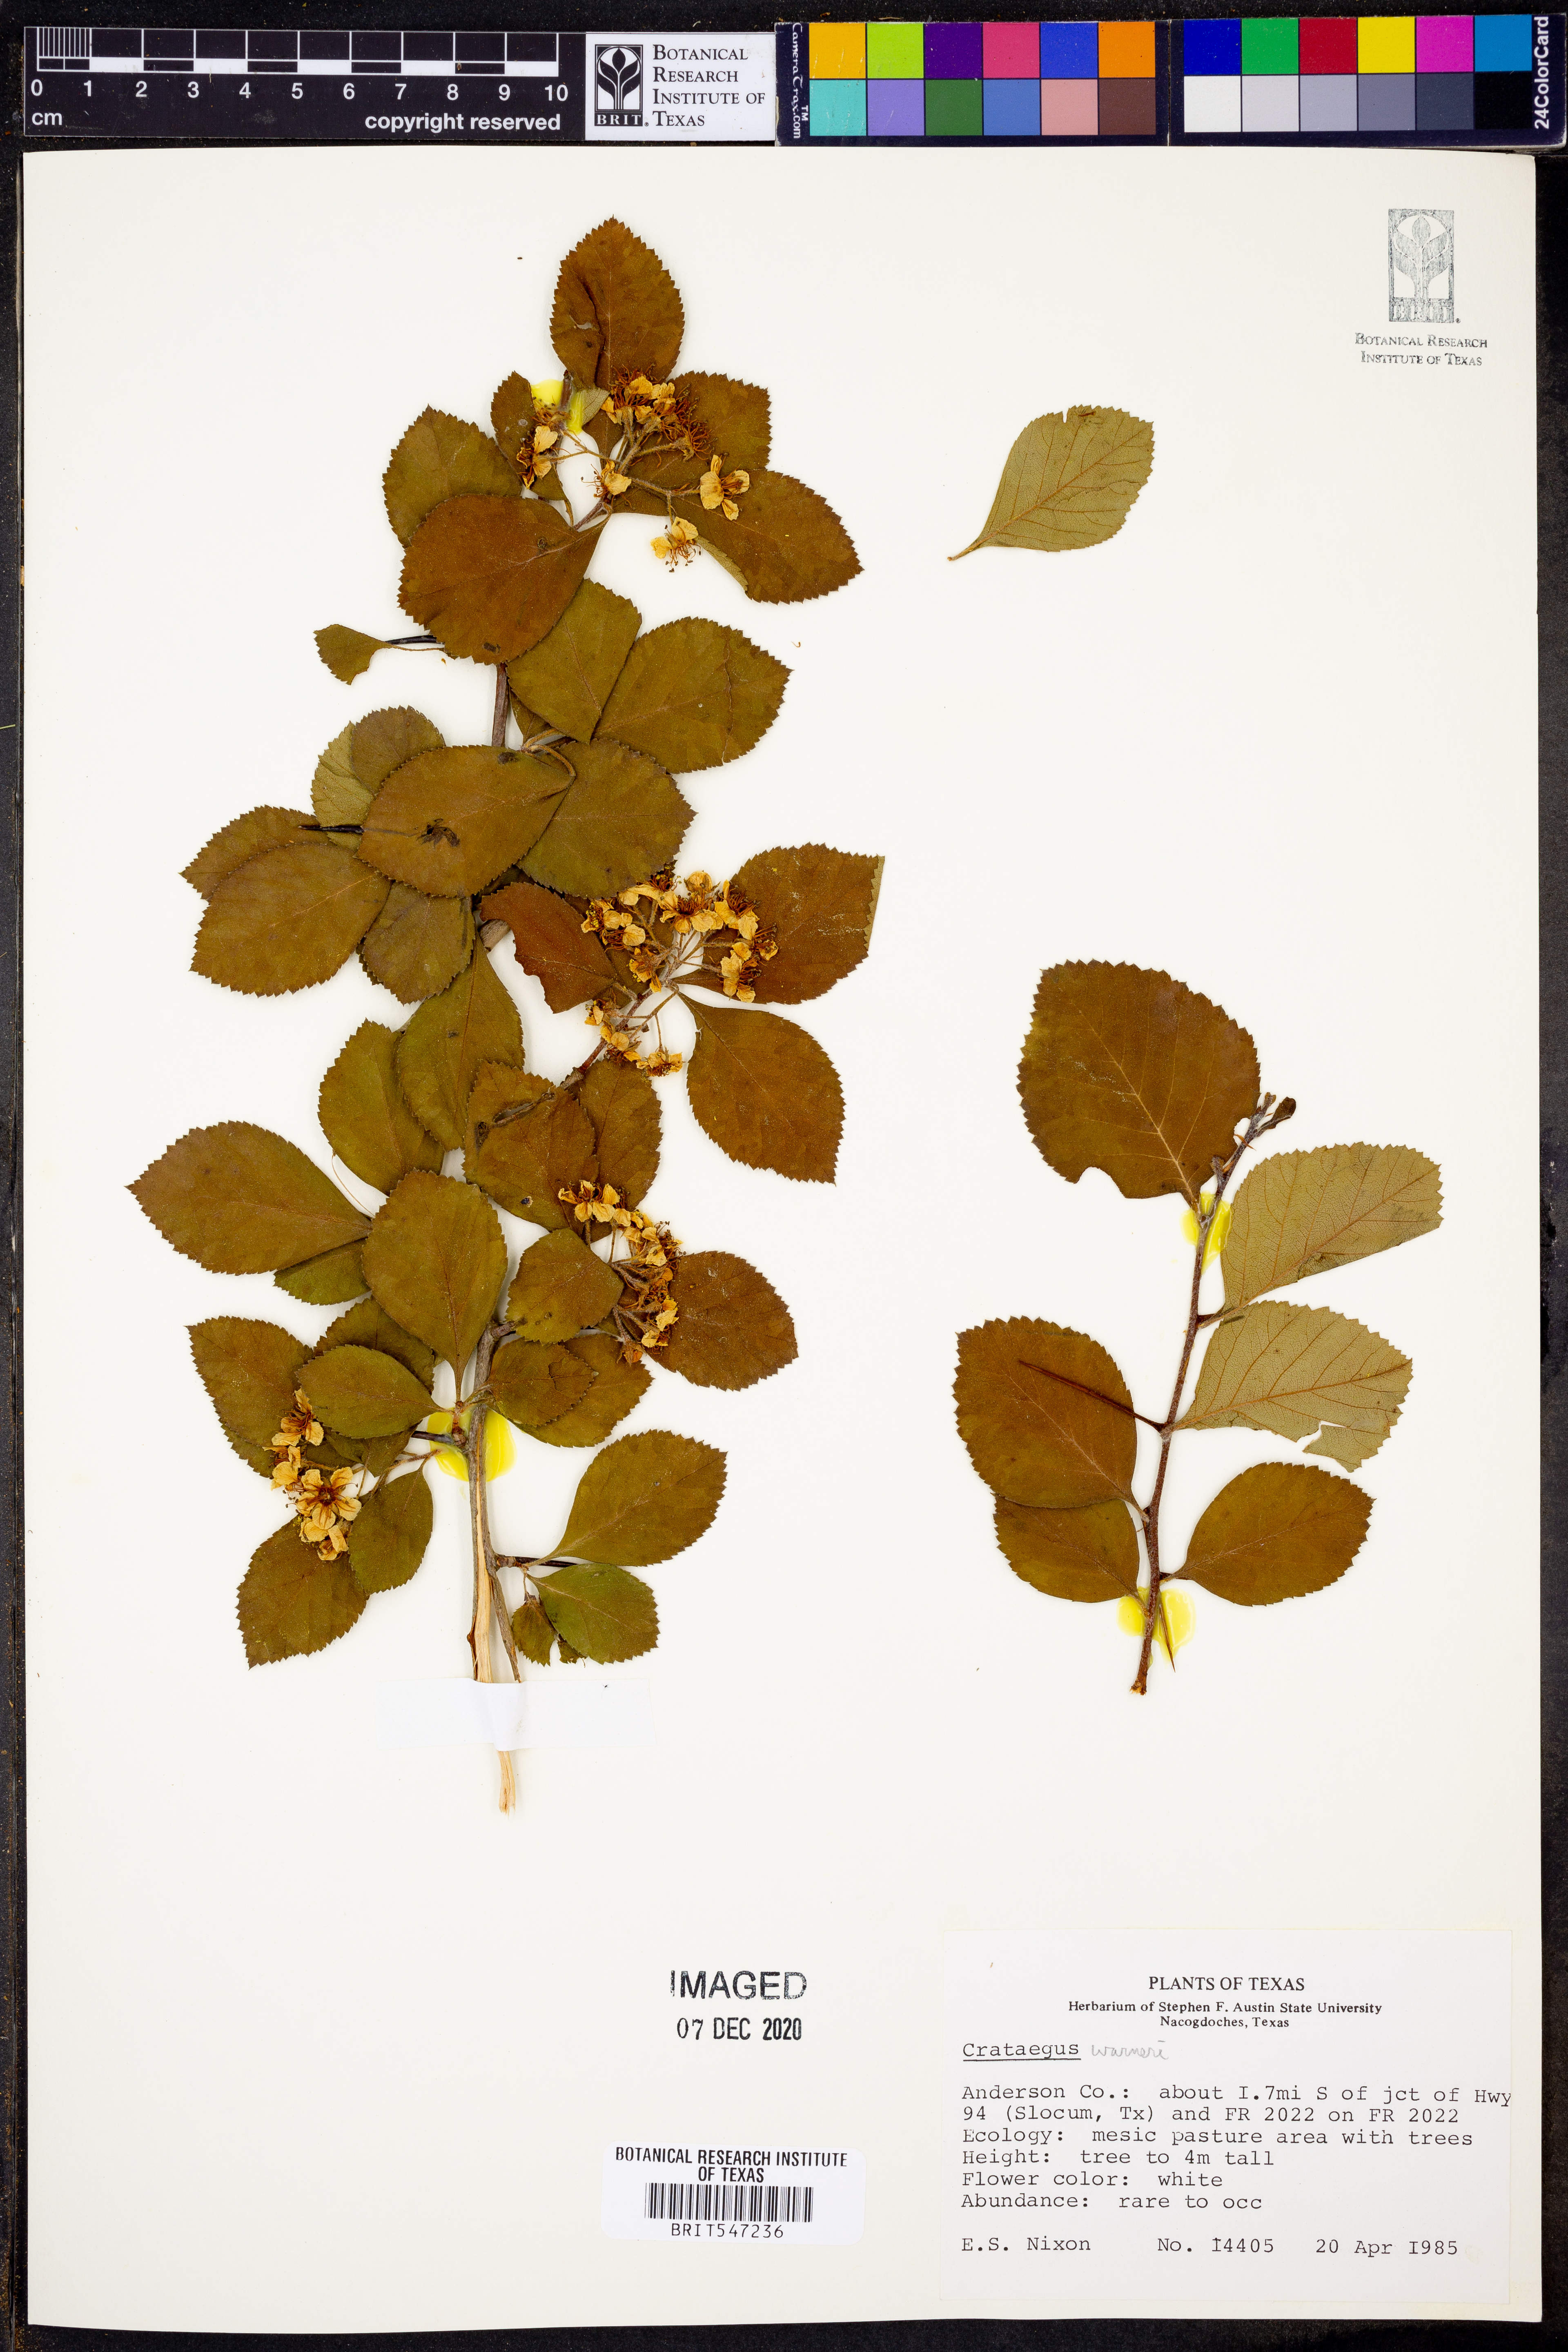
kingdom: Plantae
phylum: Tracheophyta
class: Magnoliopsida
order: Rosales
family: Rosaceae
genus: Crataegus
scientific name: Crataegus warneri
